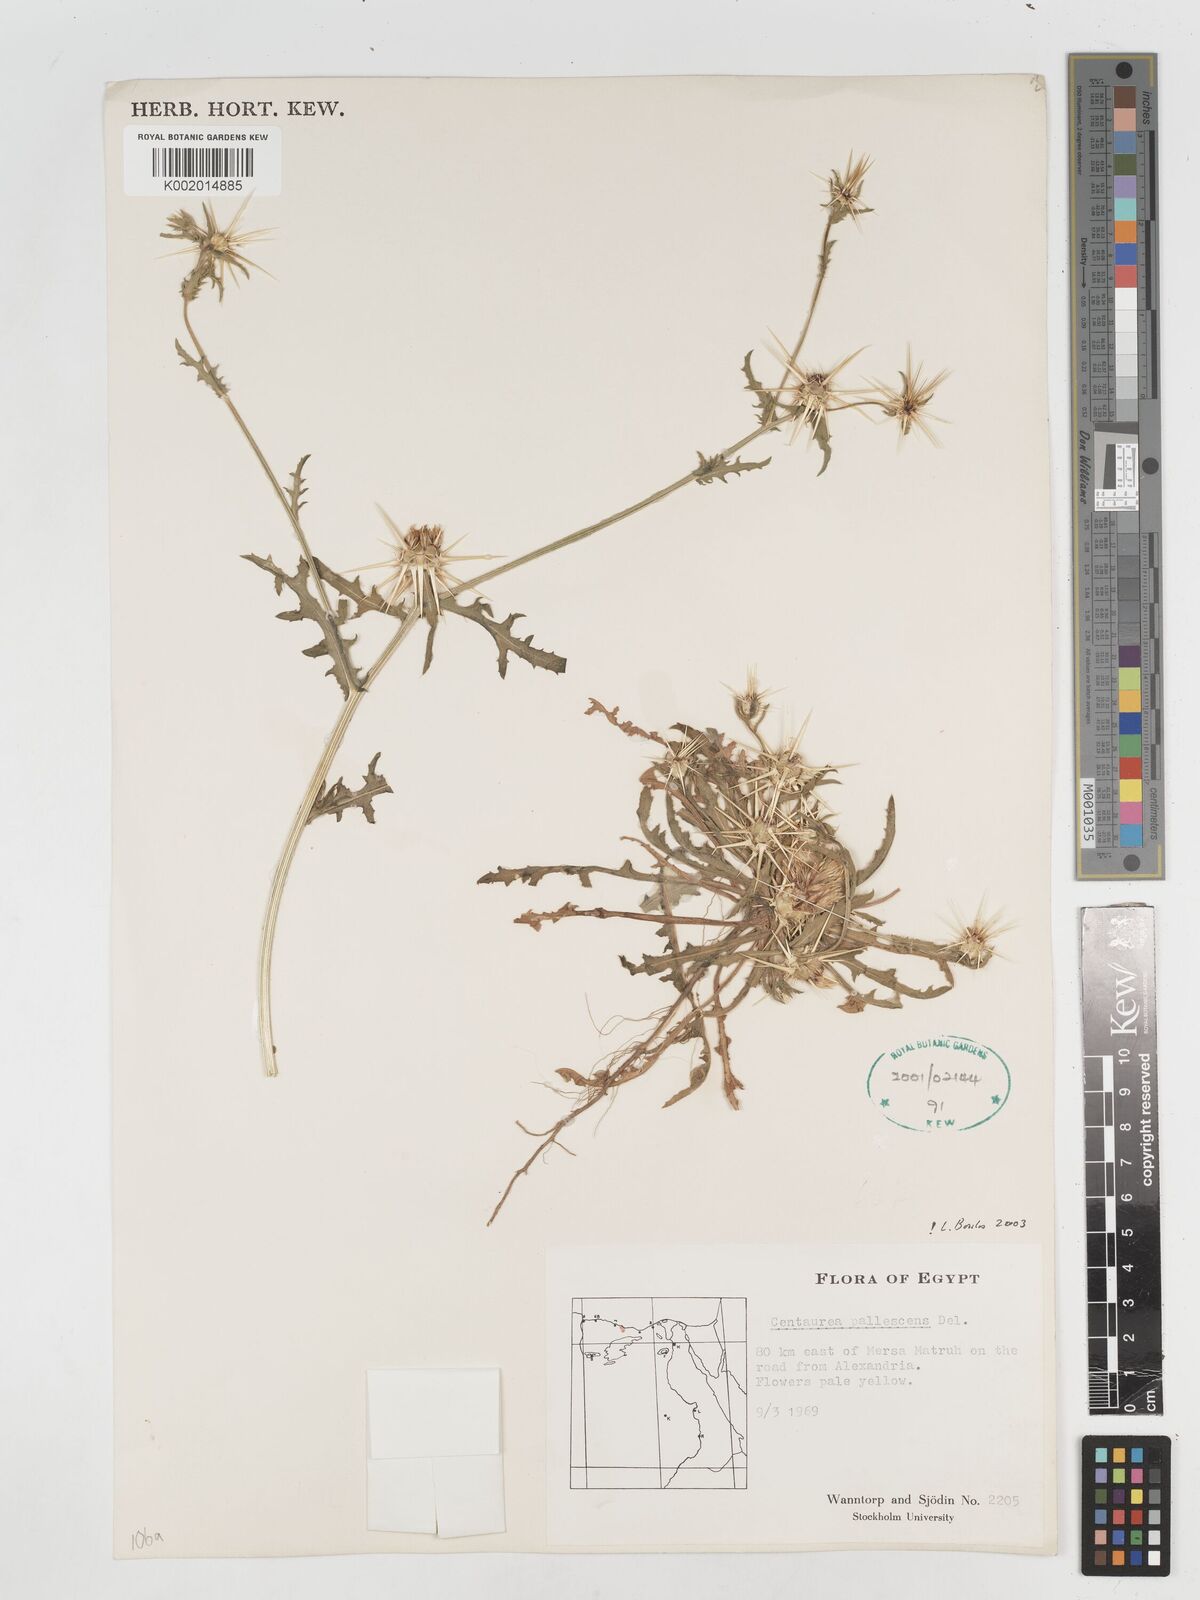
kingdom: Plantae
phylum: Tracheophyta
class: Magnoliopsida
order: Asterales
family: Asteraceae
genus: Centaurea
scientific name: Centaurea pallescens
